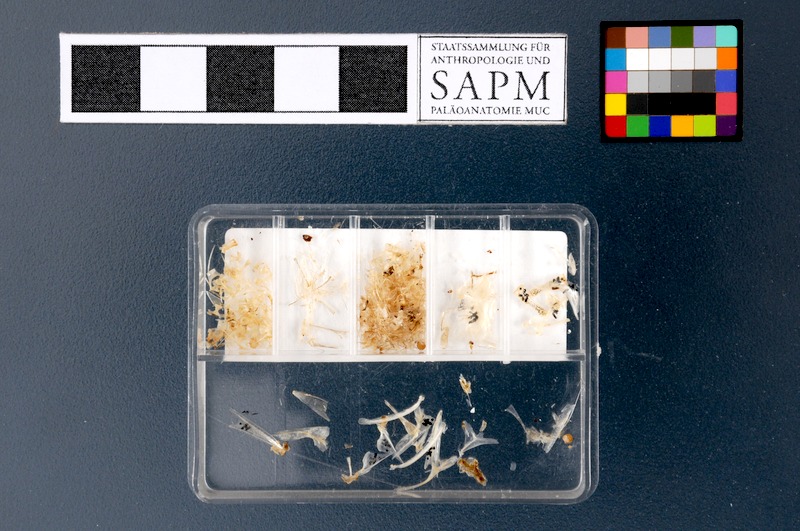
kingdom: Animalia
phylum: Chordata
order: Clupeiformes
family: Clupeidae
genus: Sardinella
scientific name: Sardinella gibbosa
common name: Goldstripe sardinella
